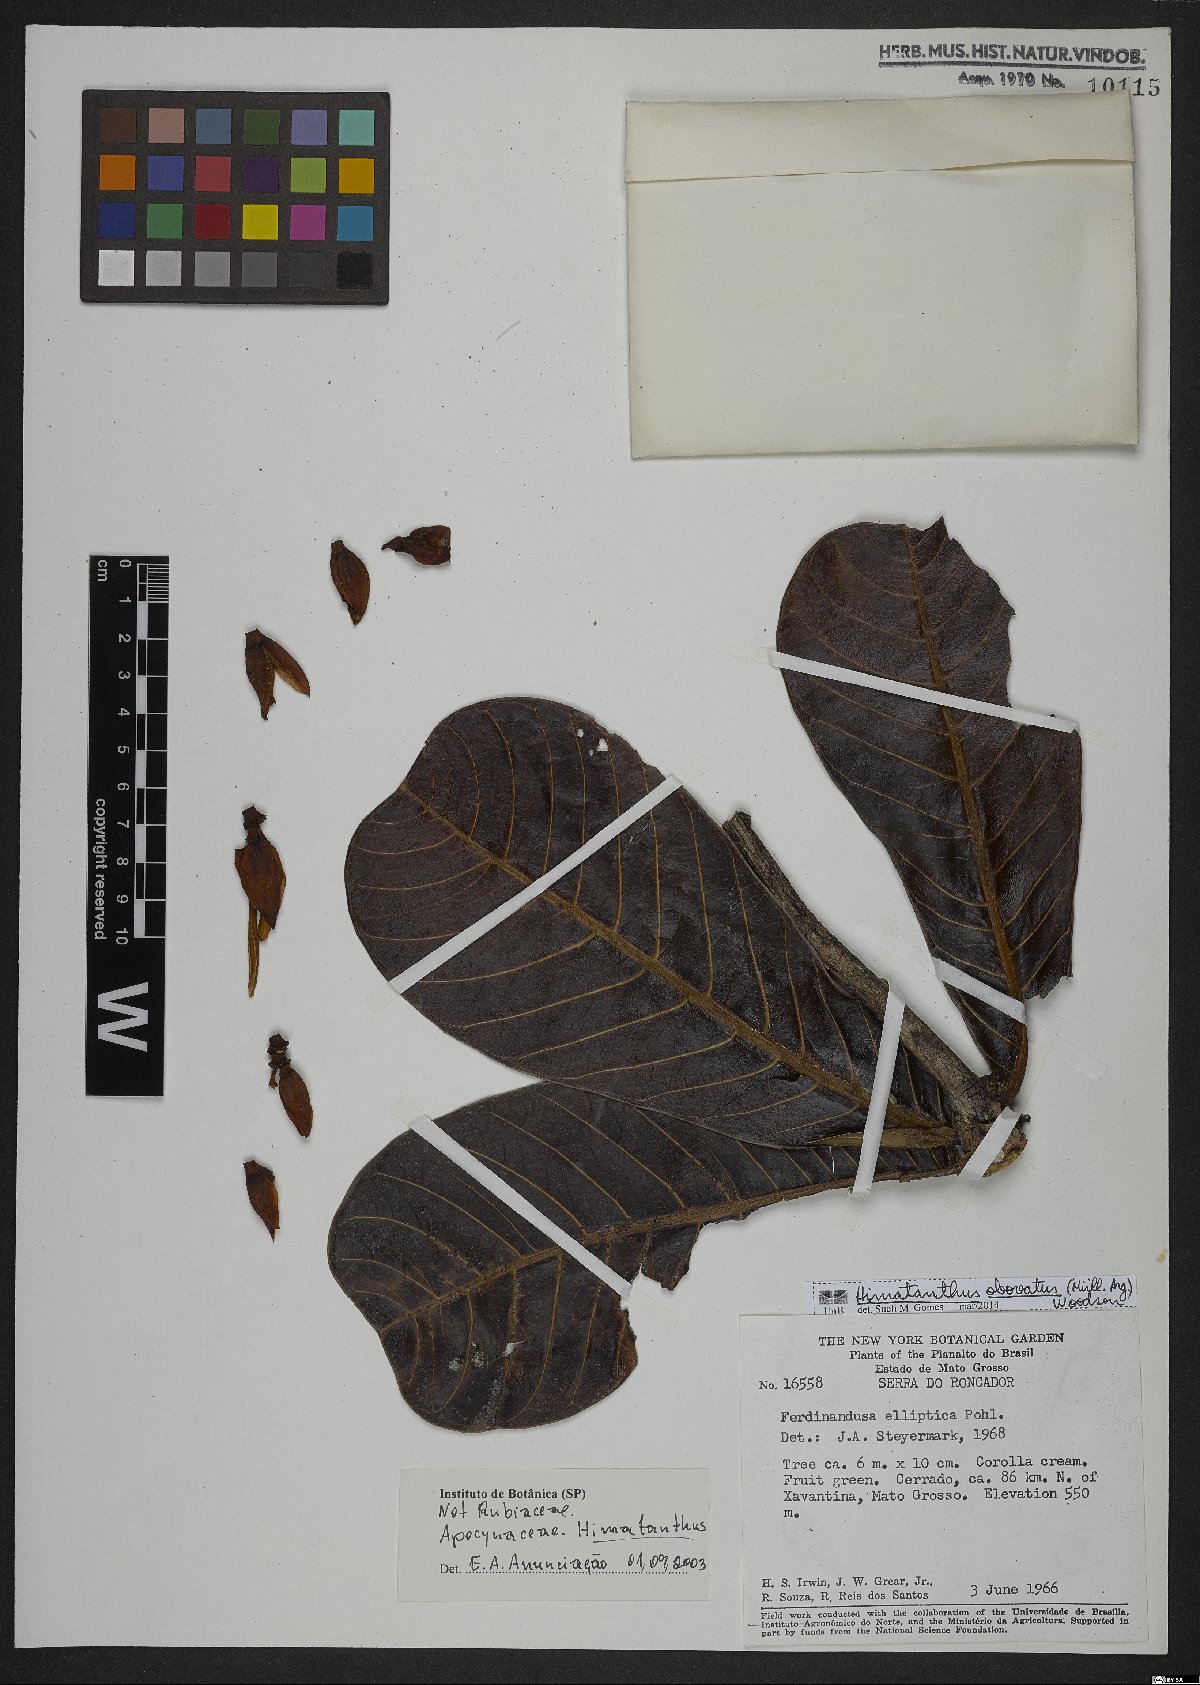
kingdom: Plantae
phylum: Tracheophyta
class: Magnoliopsida
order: Gentianales
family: Apocynaceae
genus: Himatanthus
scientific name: Himatanthus obovatus
